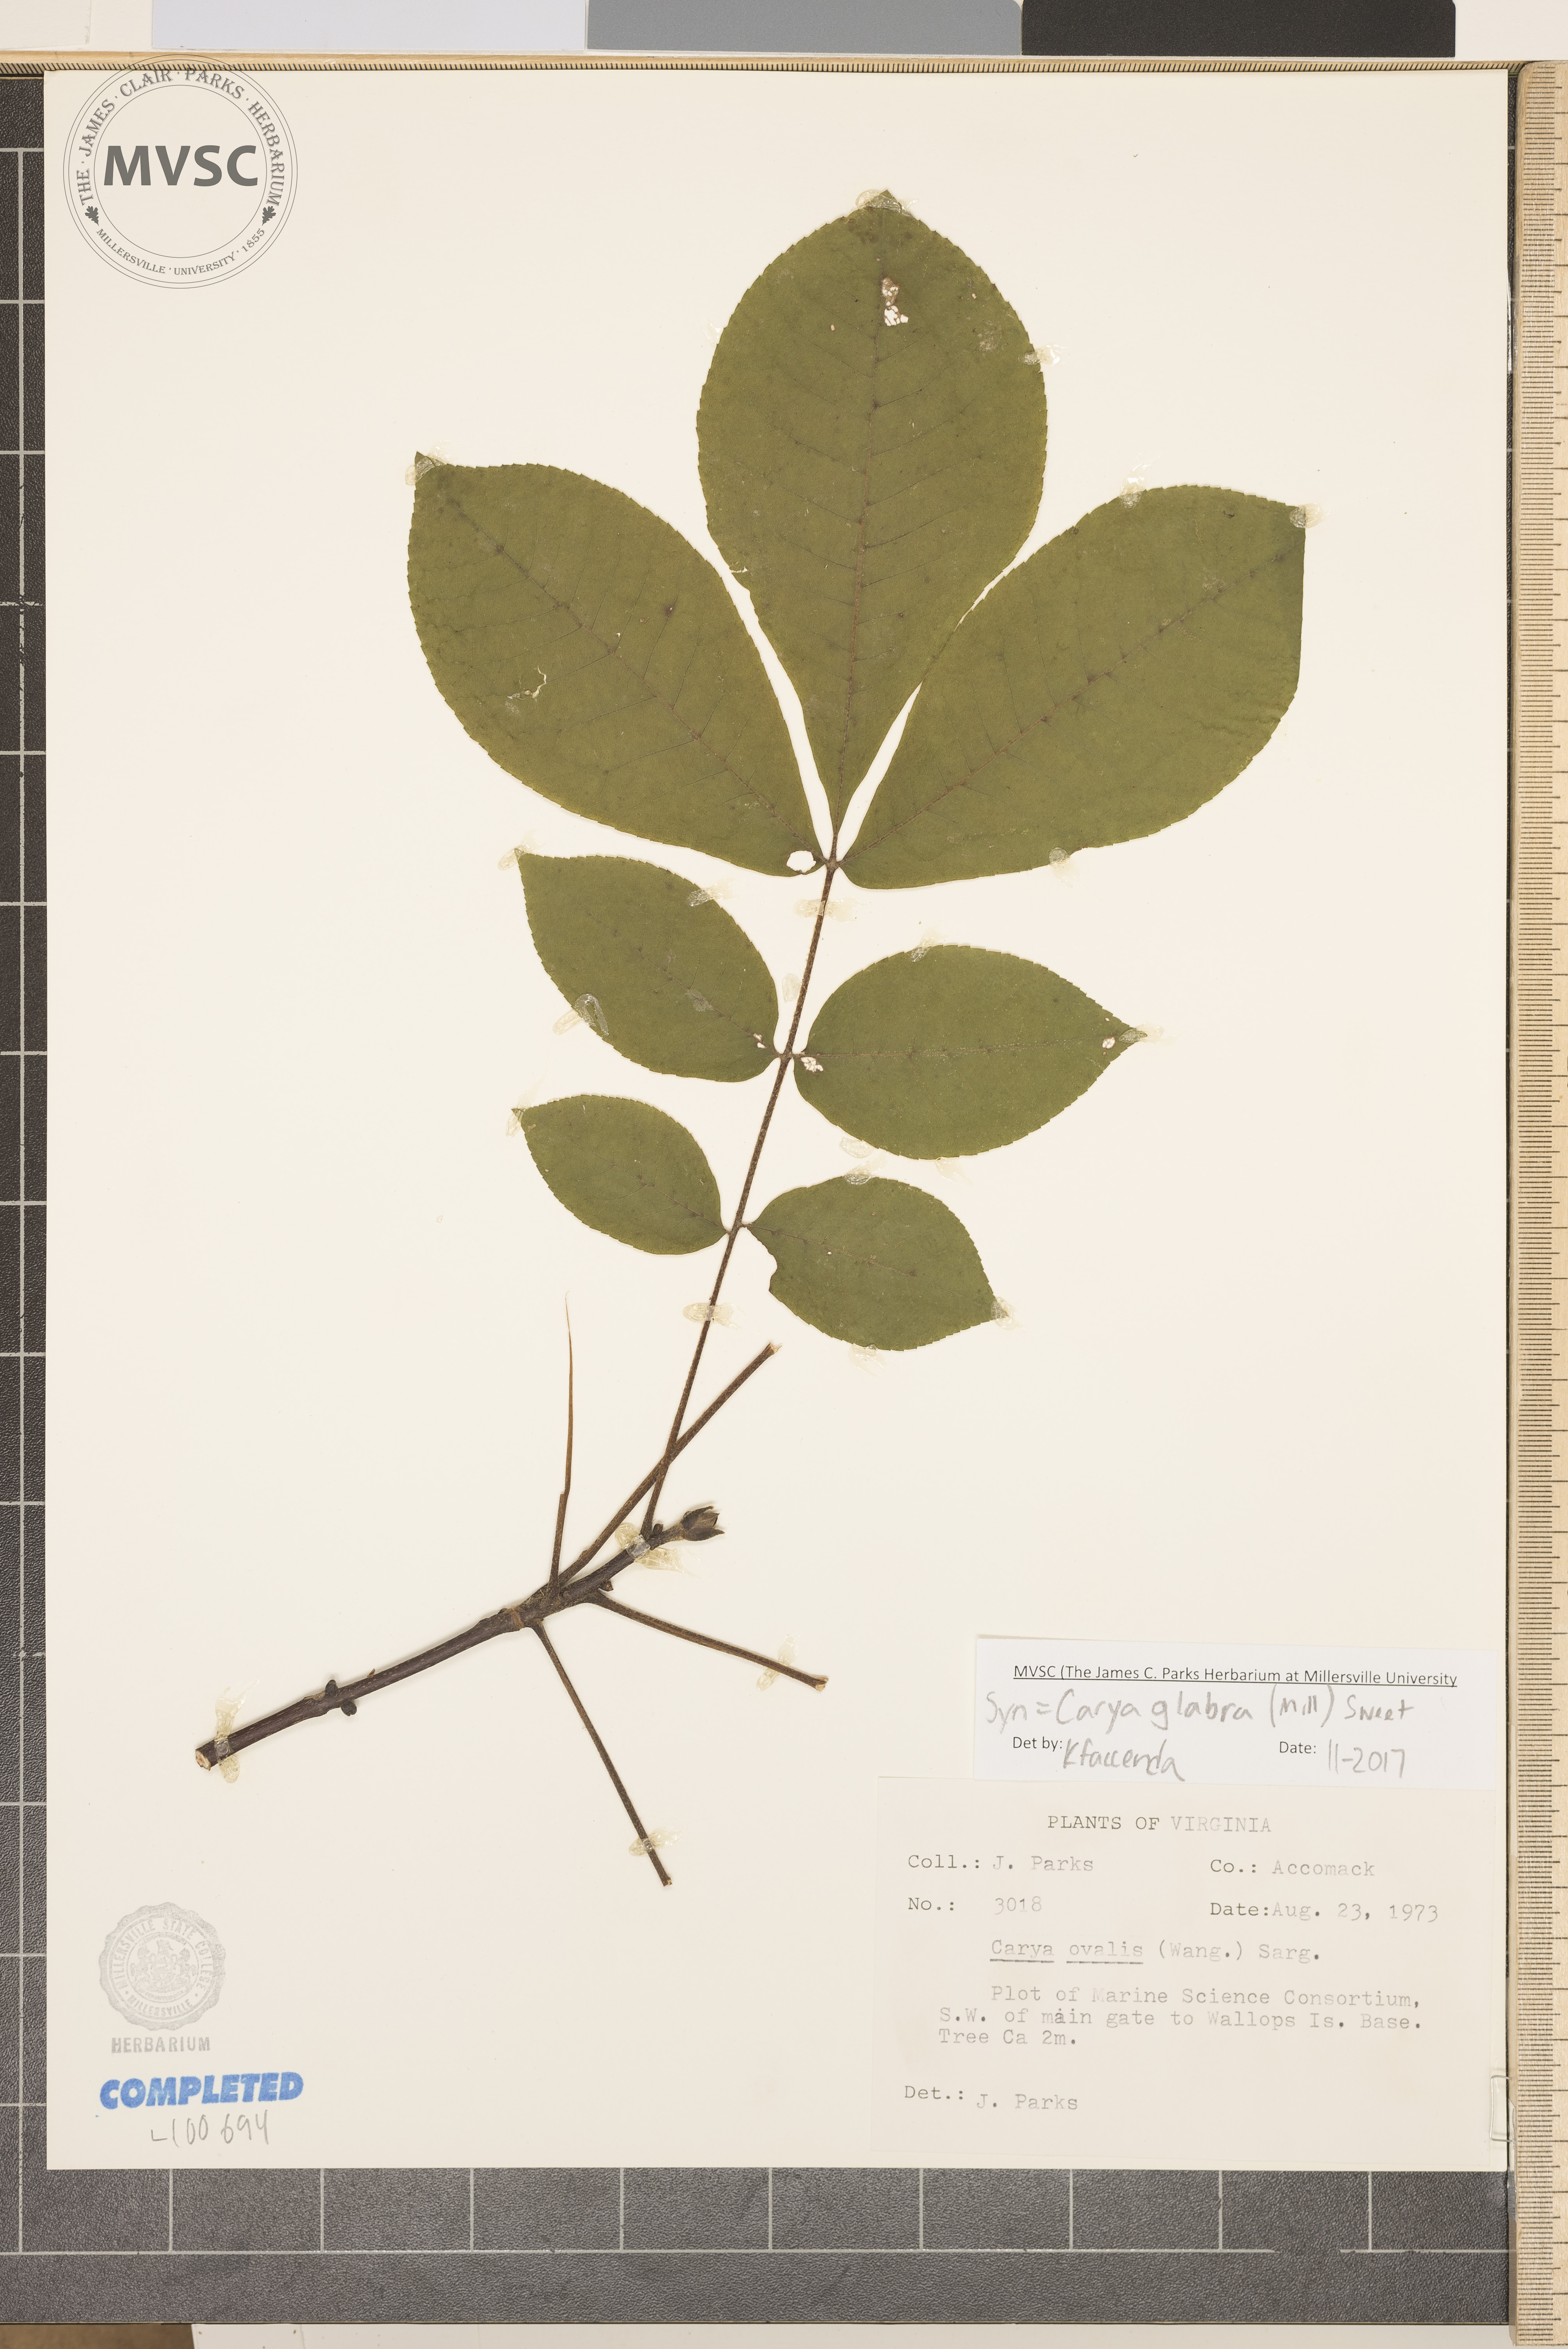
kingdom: Plantae
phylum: Tracheophyta
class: Magnoliopsida
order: Fagales
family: Juglandaceae
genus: Carya
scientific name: Carya glabra
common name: red hickory
